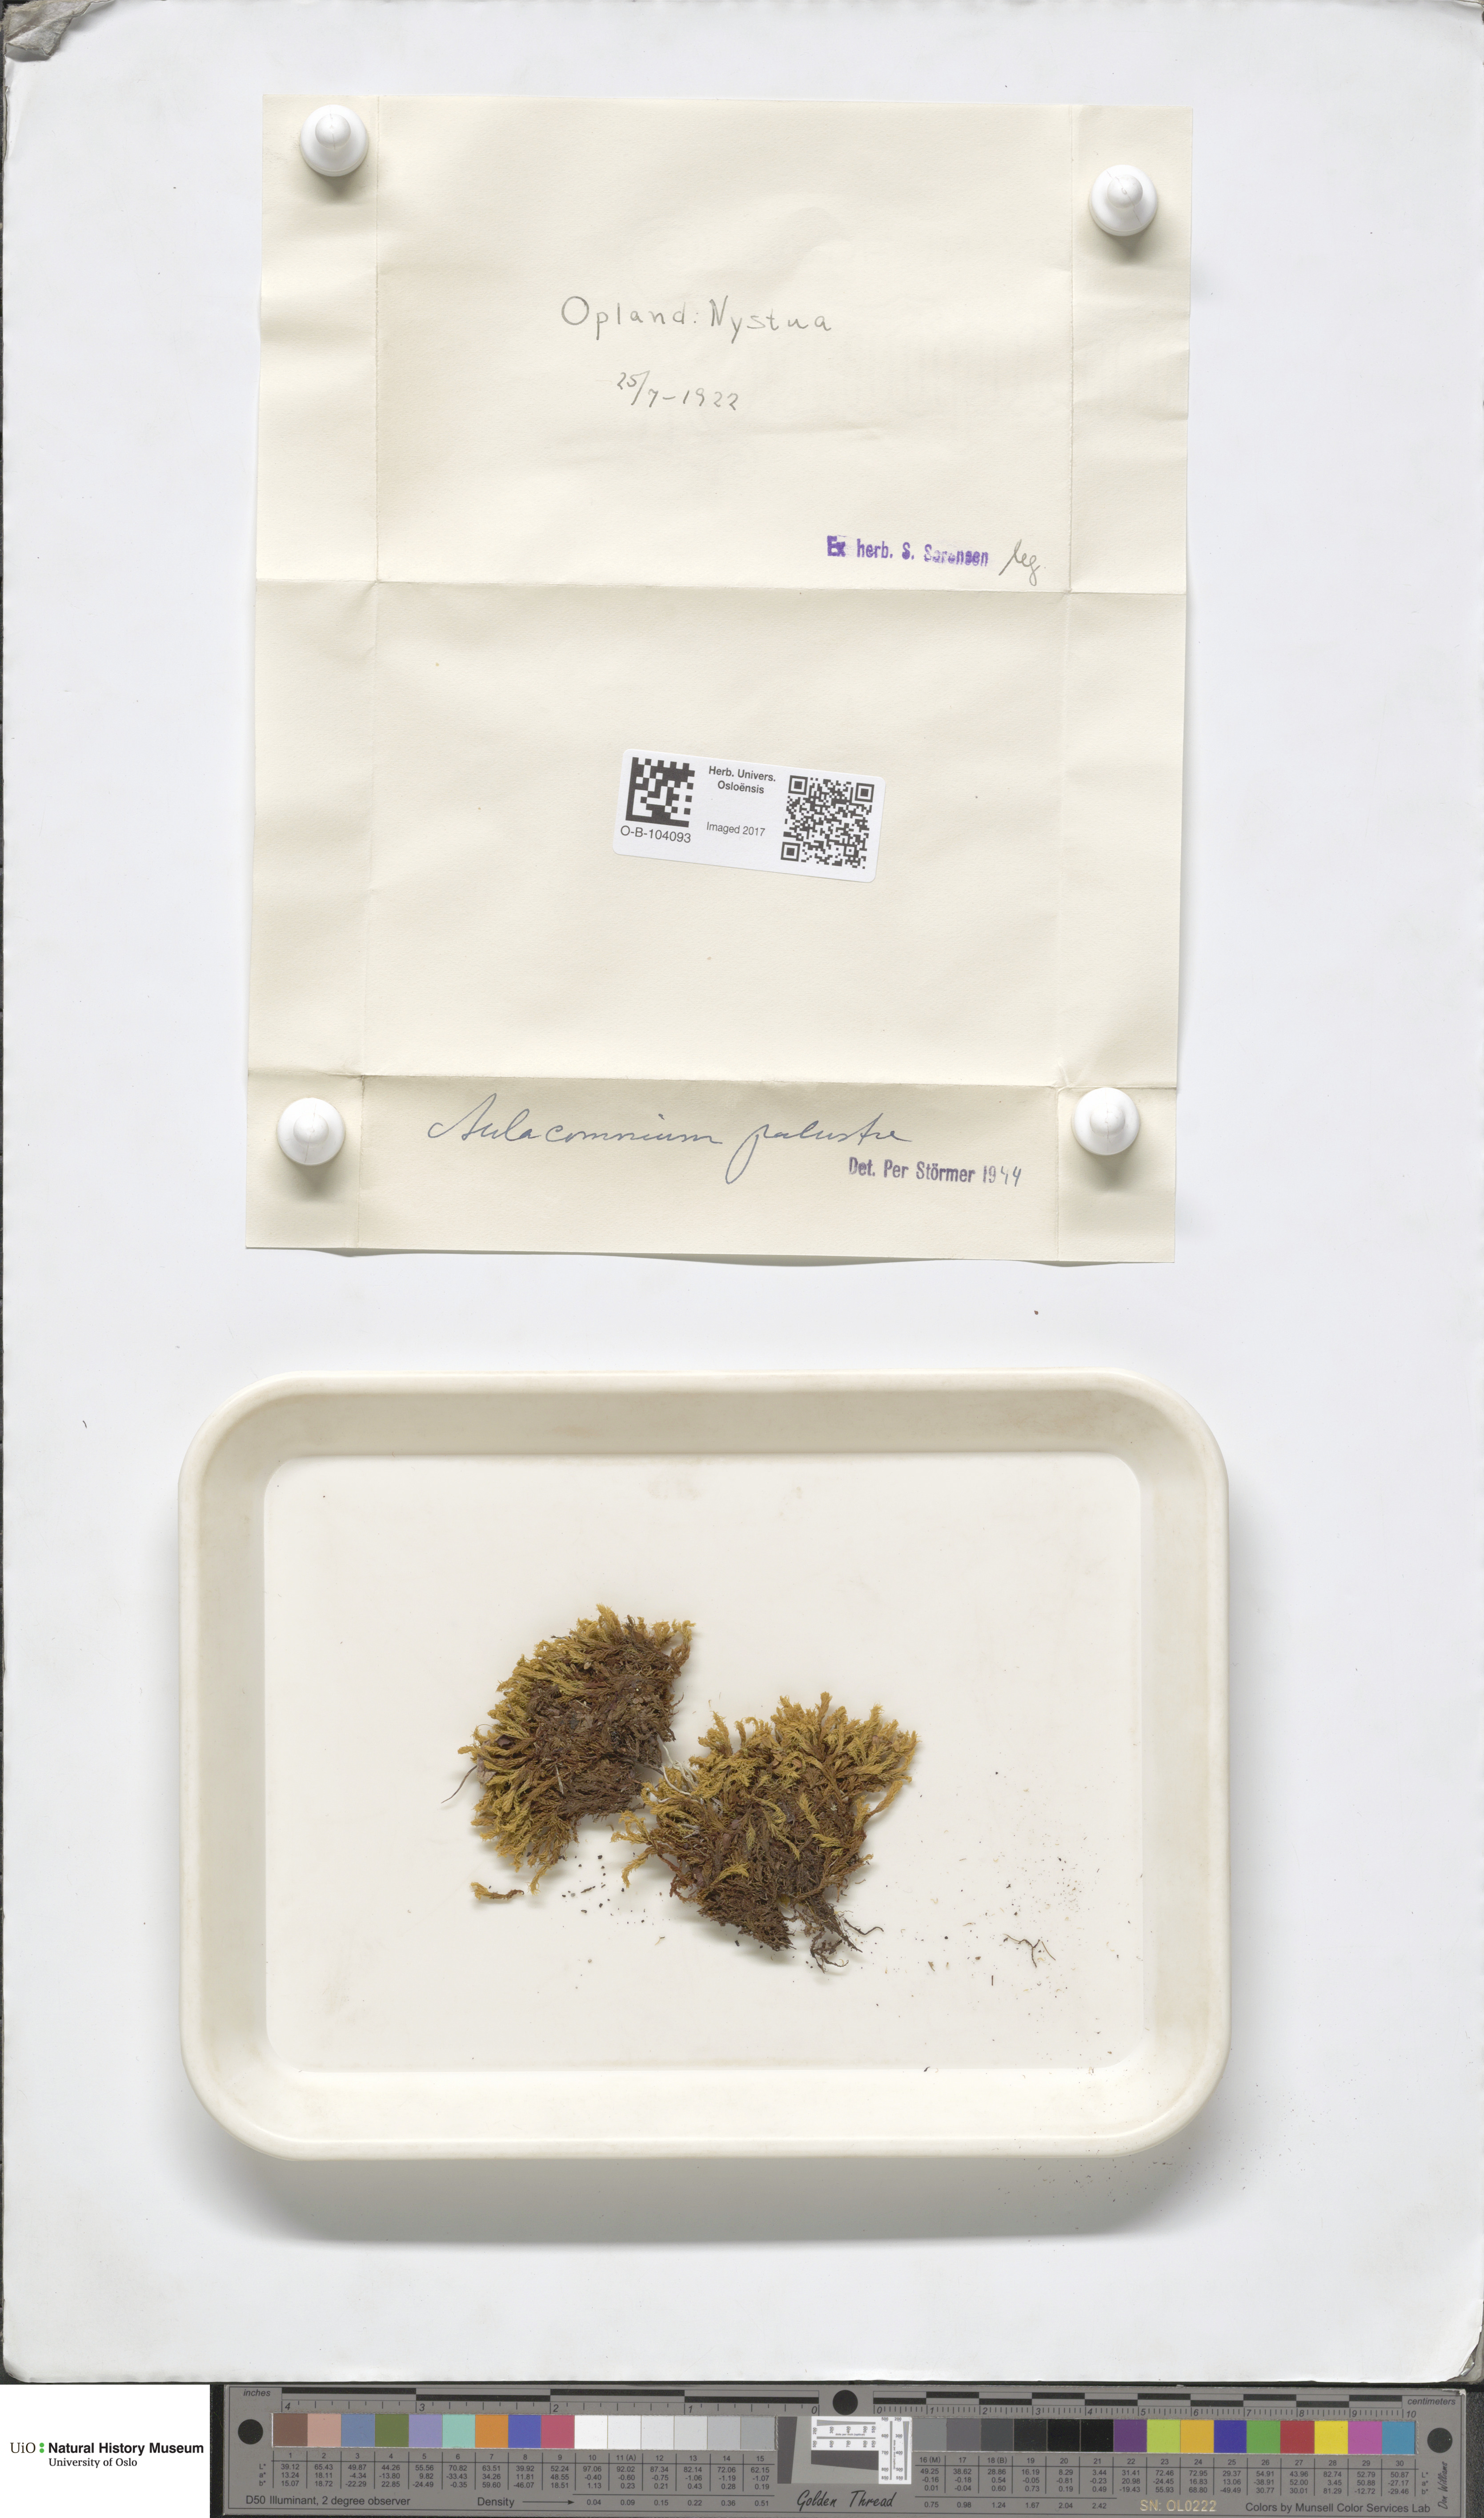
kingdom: Plantae
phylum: Bryophyta
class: Bryopsida
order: Aulacomniales
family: Aulacomniaceae
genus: Aulacomnium
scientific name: Aulacomnium palustre
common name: Bog groove-moss
